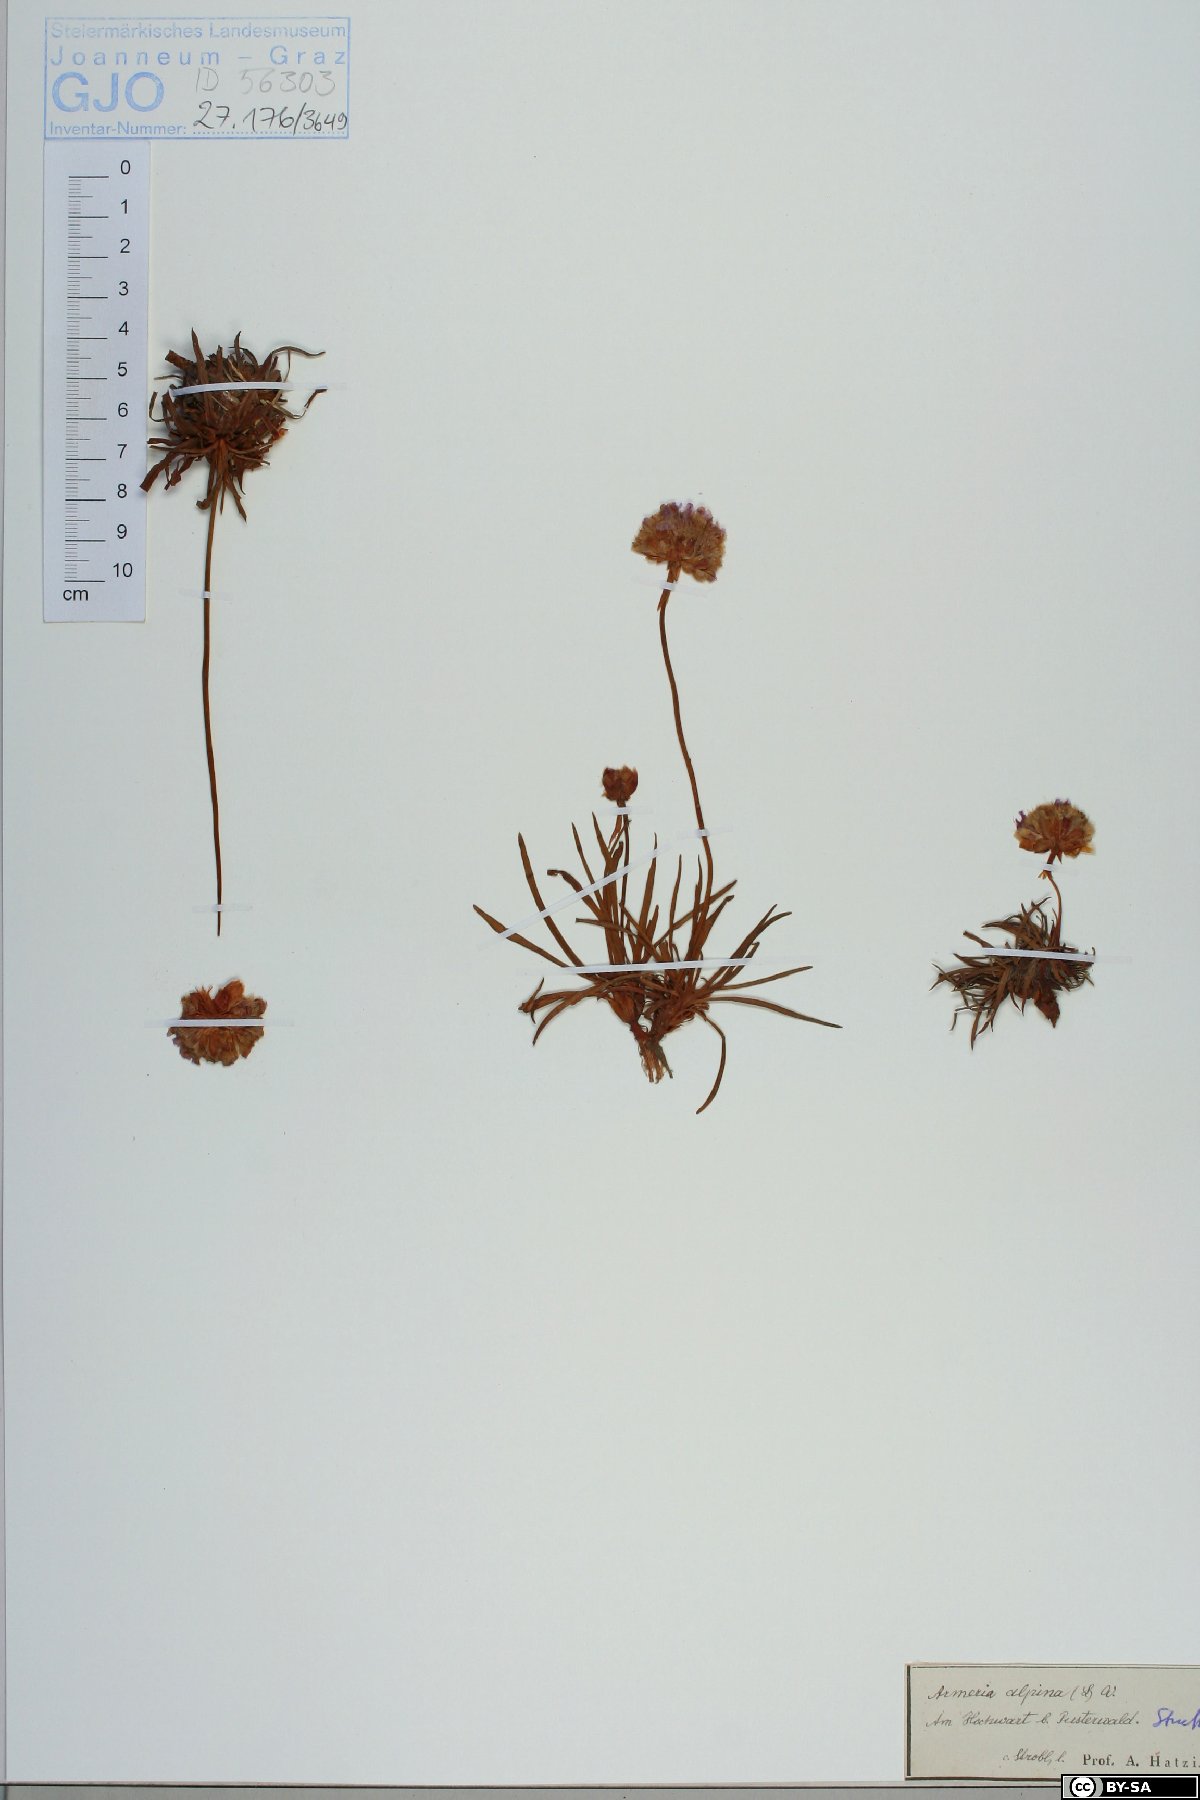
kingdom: Plantae
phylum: Tracheophyta
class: Magnoliopsida
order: Caryophyllales
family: Plumbaginaceae
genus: Armeria
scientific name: Armeria alpina
